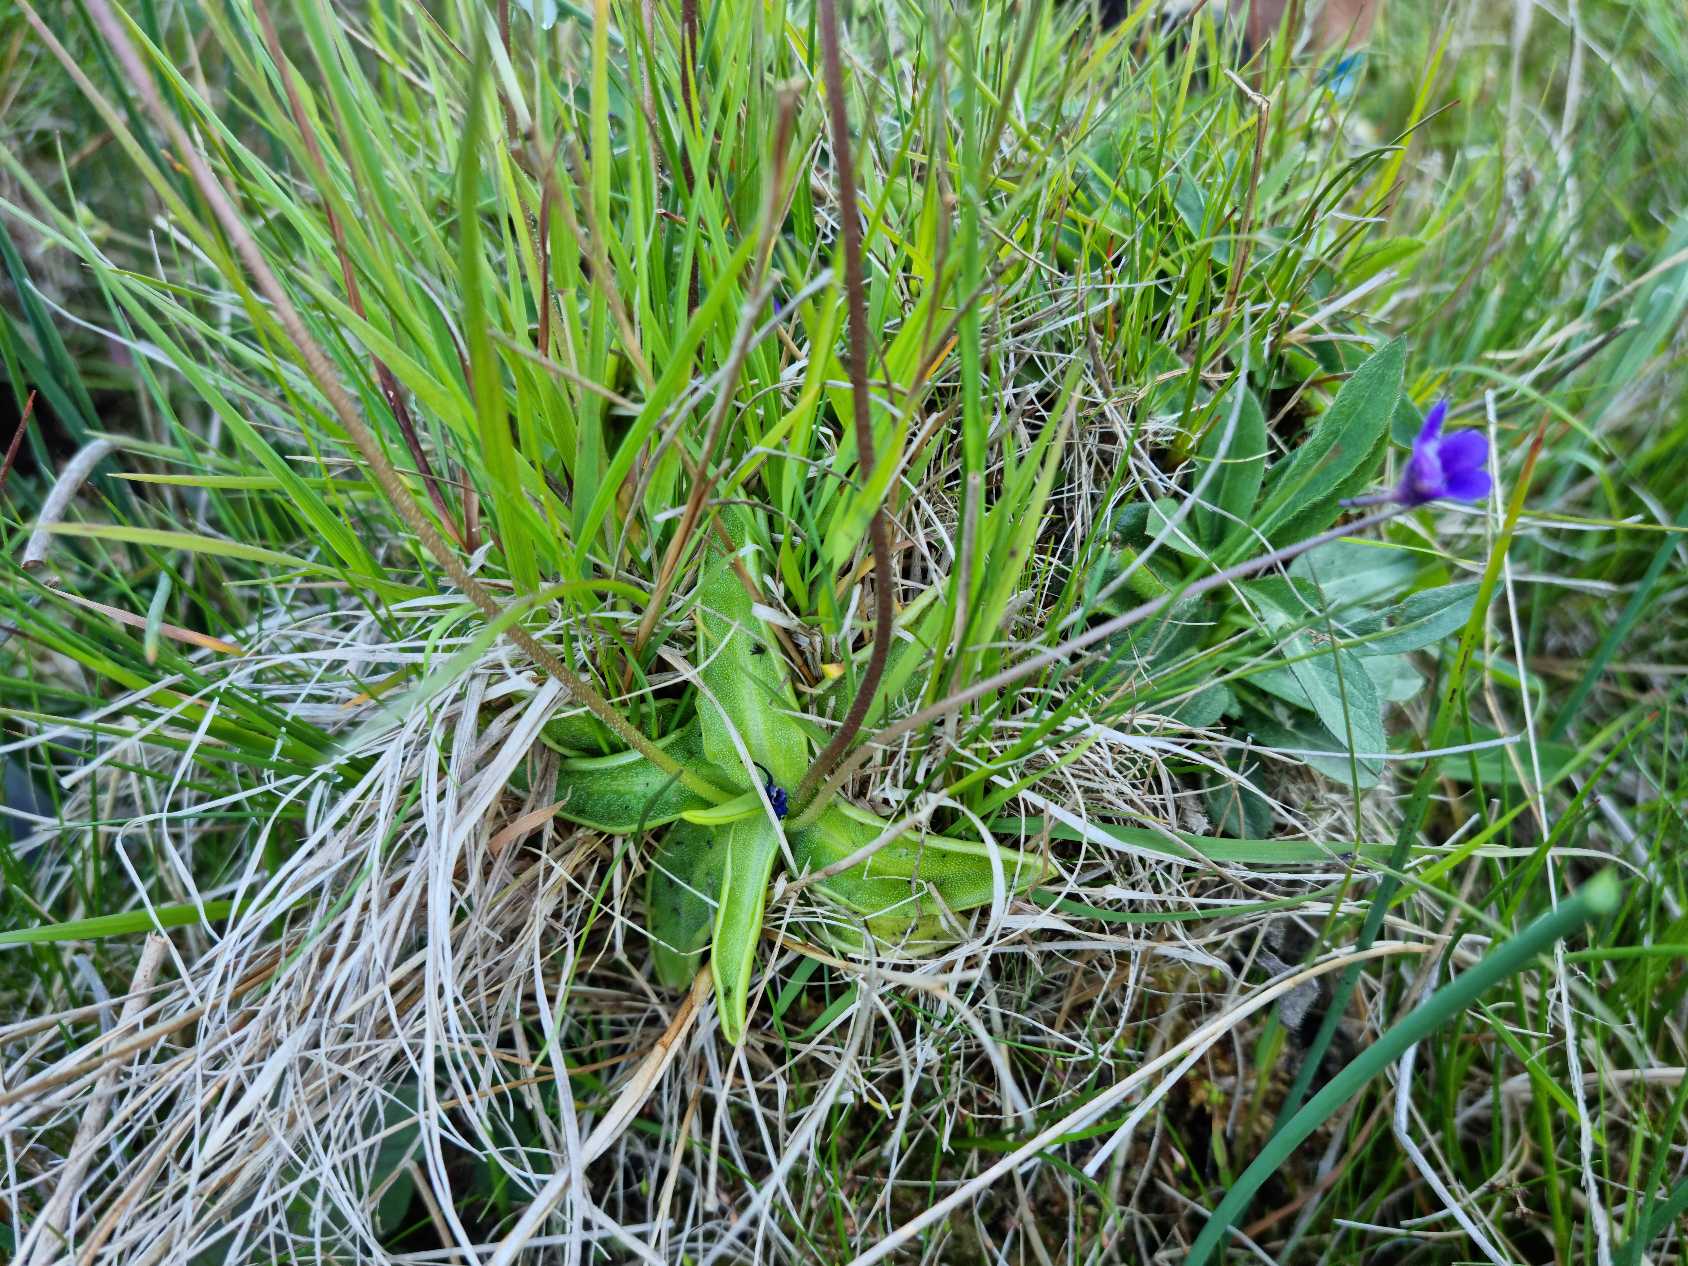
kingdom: Plantae
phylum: Tracheophyta
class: Magnoliopsida
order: Lamiales
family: Lentibulariaceae
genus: Pinguicula
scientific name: Pinguicula vulgaris
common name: Vibefedt
